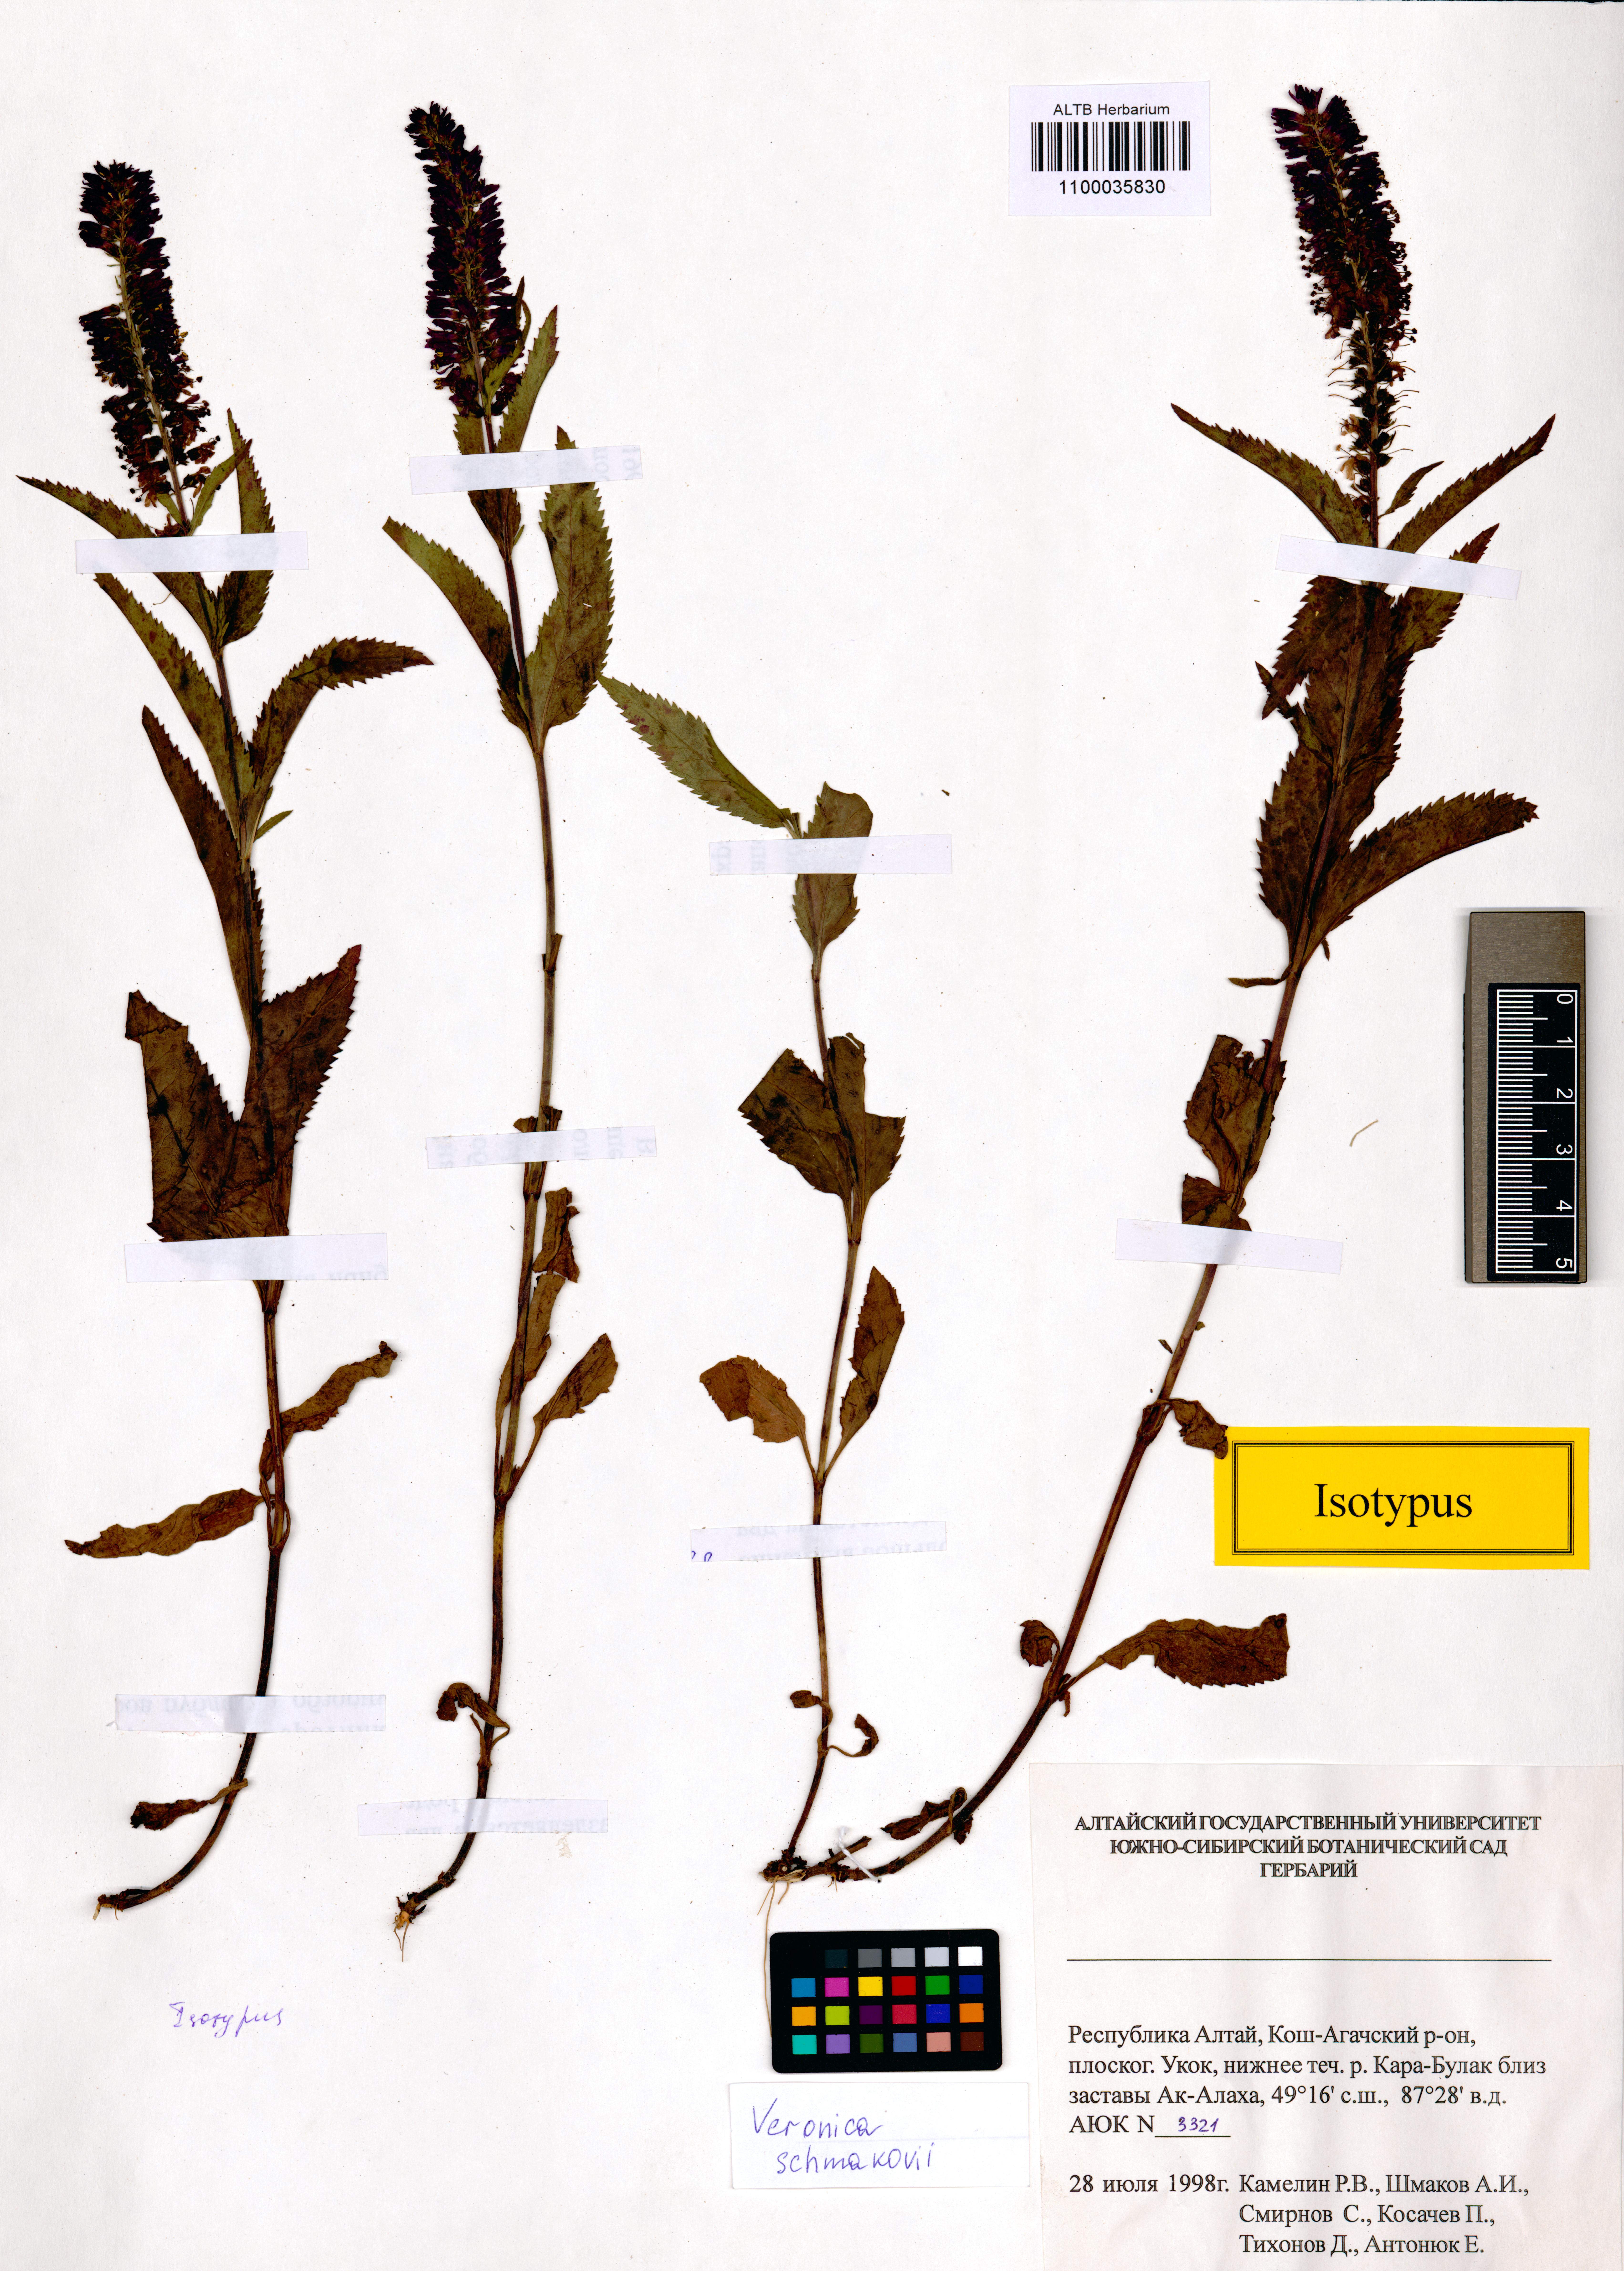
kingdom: Plantae
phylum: Tracheophyta
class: Magnoliopsida
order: Lamiales
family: Plantaginaceae
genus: Veronica
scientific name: Veronica schmakovii
